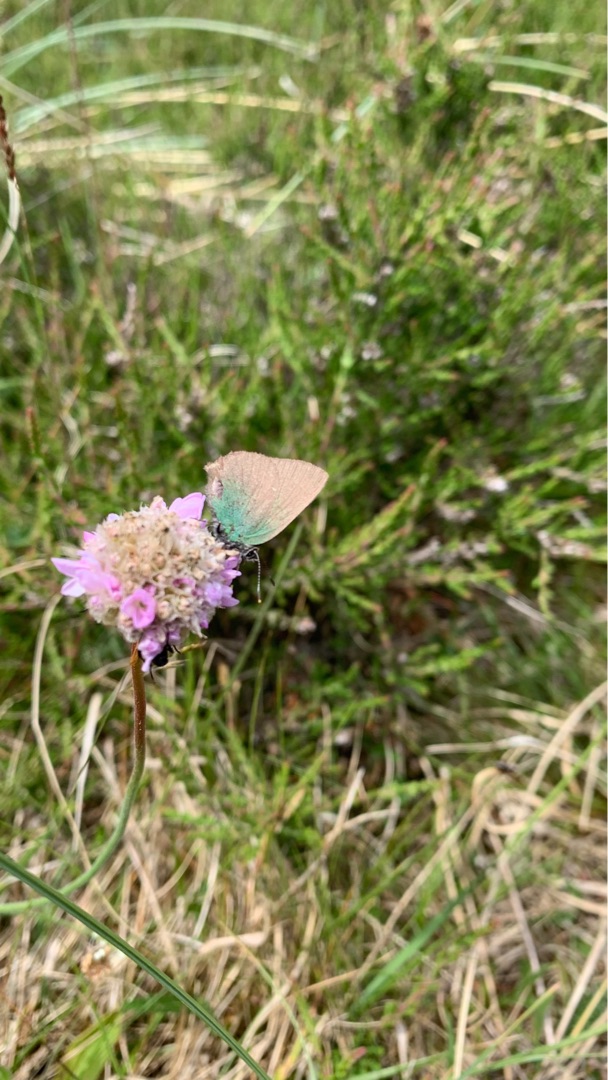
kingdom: Animalia
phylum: Arthropoda
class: Insecta
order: Lepidoptera
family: Lycaenidae
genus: Callophrys
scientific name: Callophrys rubi
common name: Grøn busksommerfugl
